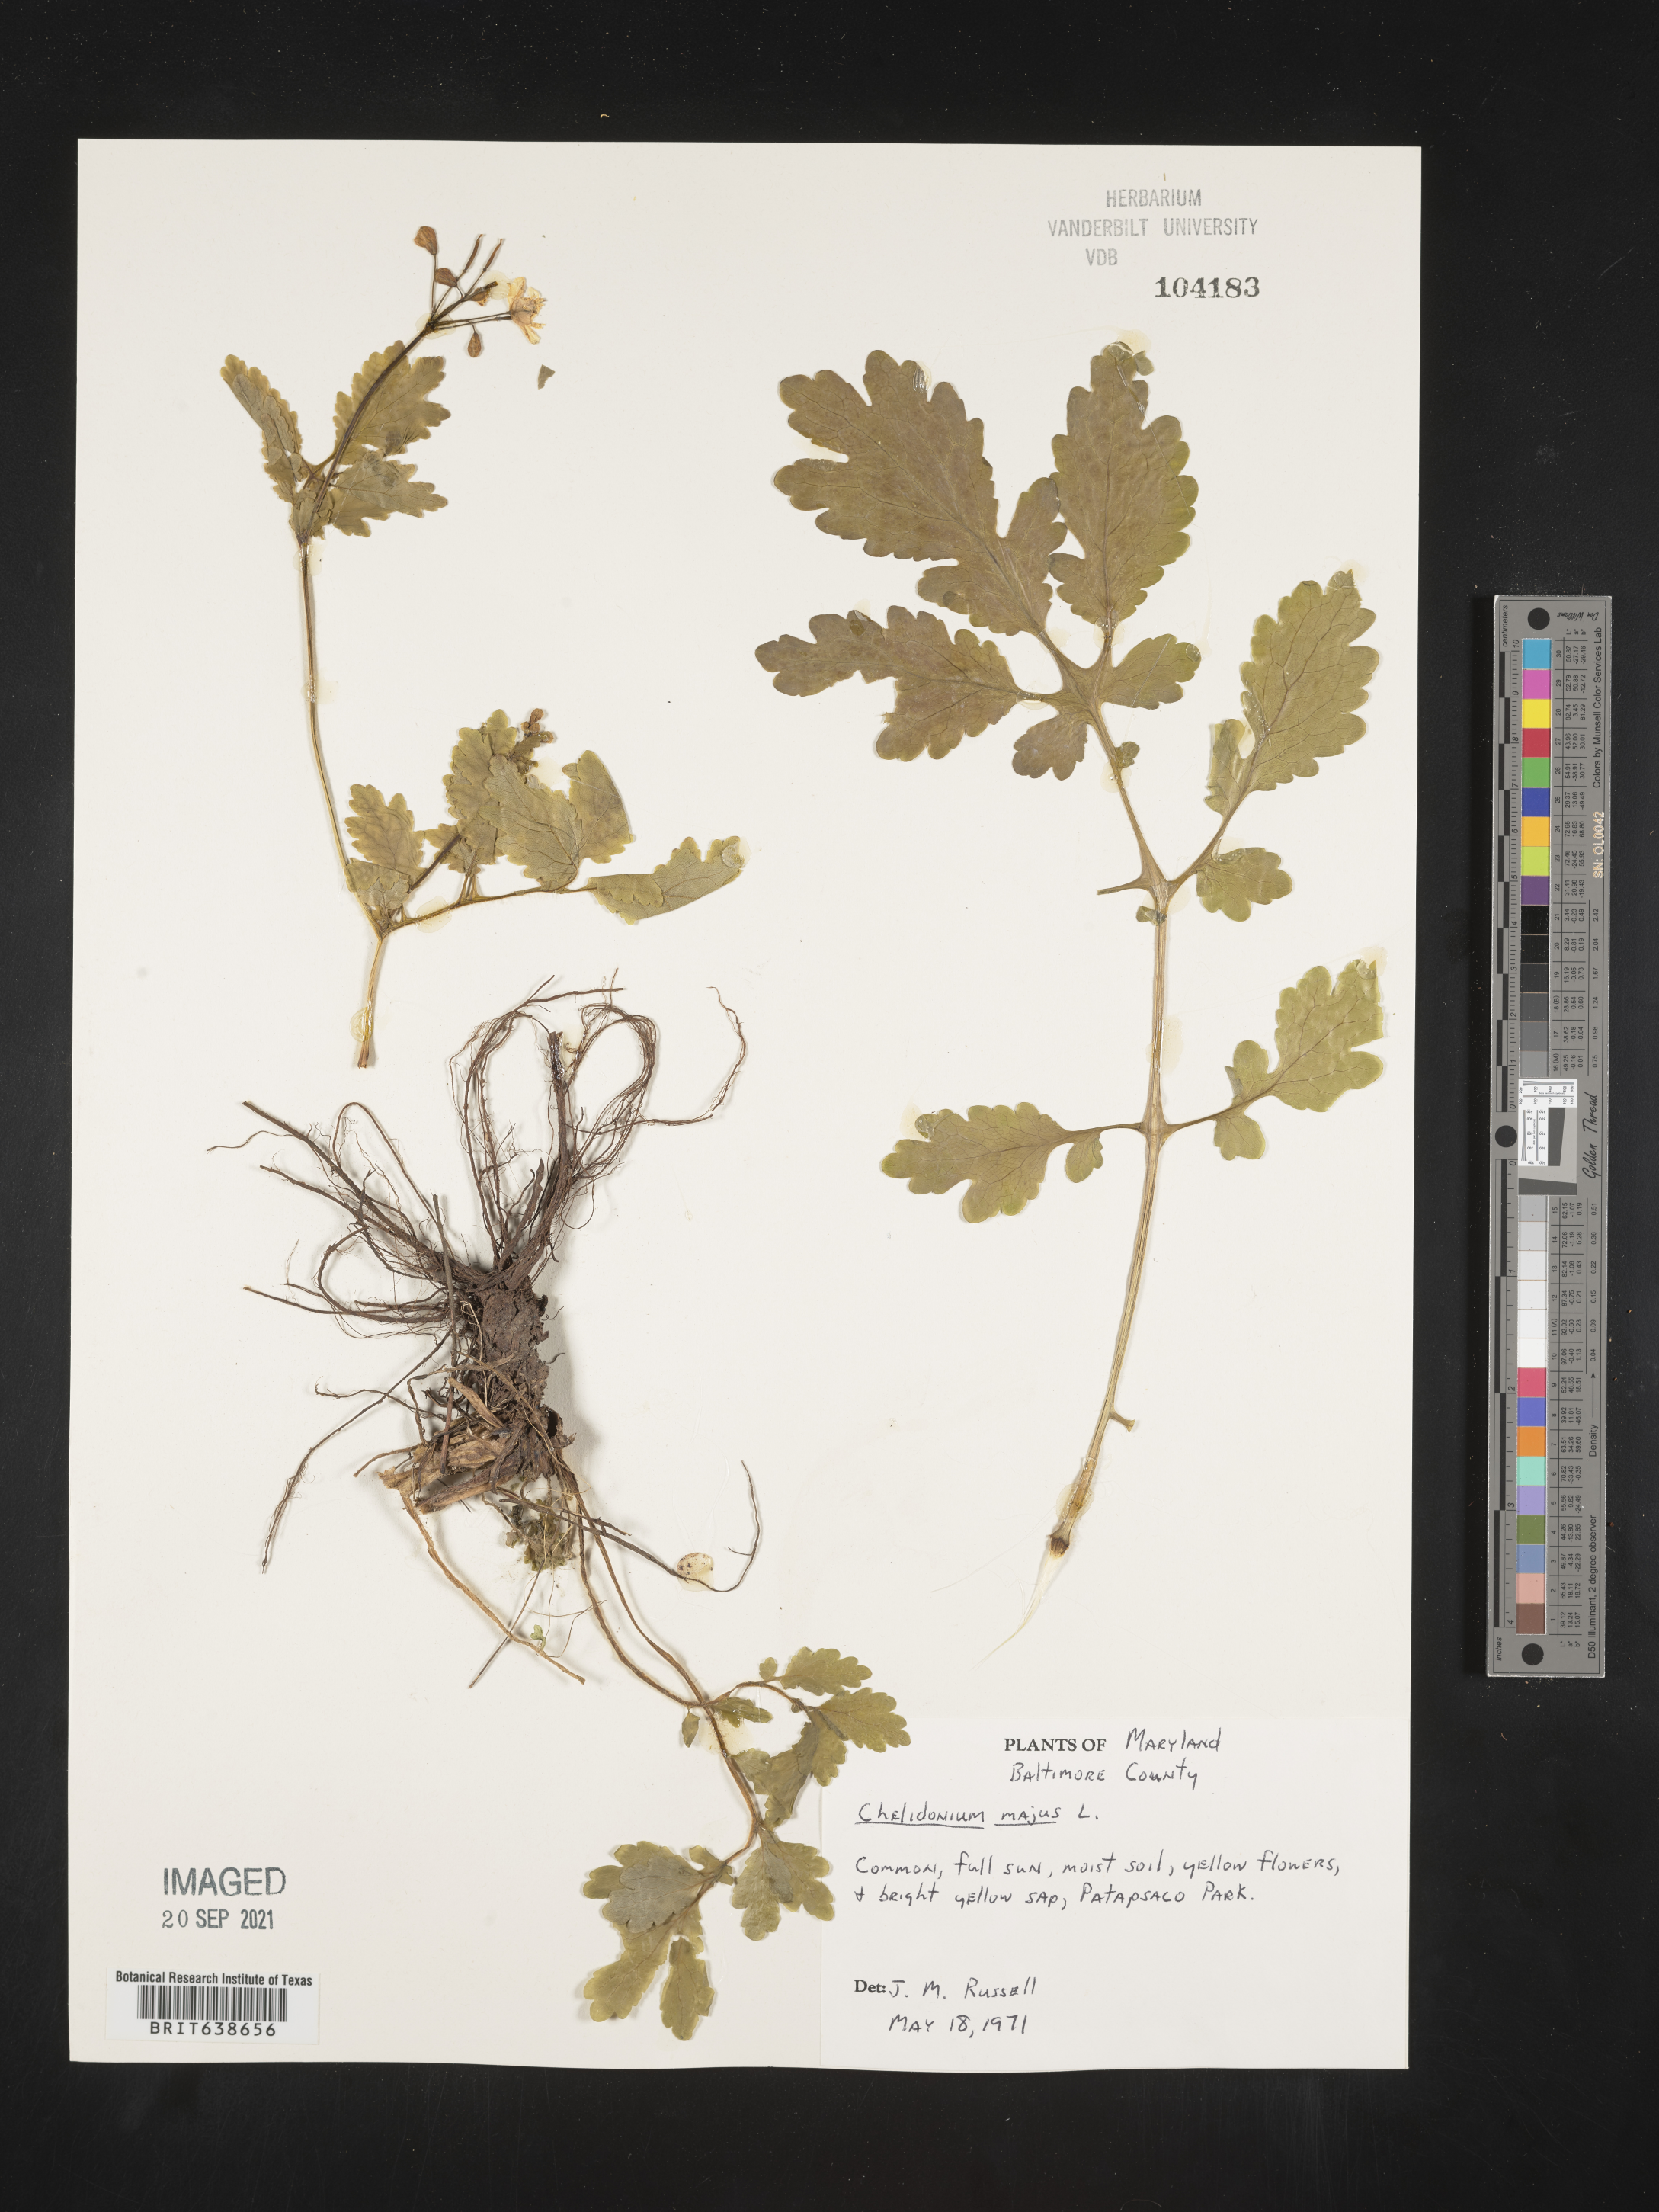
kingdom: Plantae
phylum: Tracheophyta
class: Magnoliopsida
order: Ranunculales
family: Papaveraceae
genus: Chelidonium
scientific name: Chelidonium majus
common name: Greater celandine
